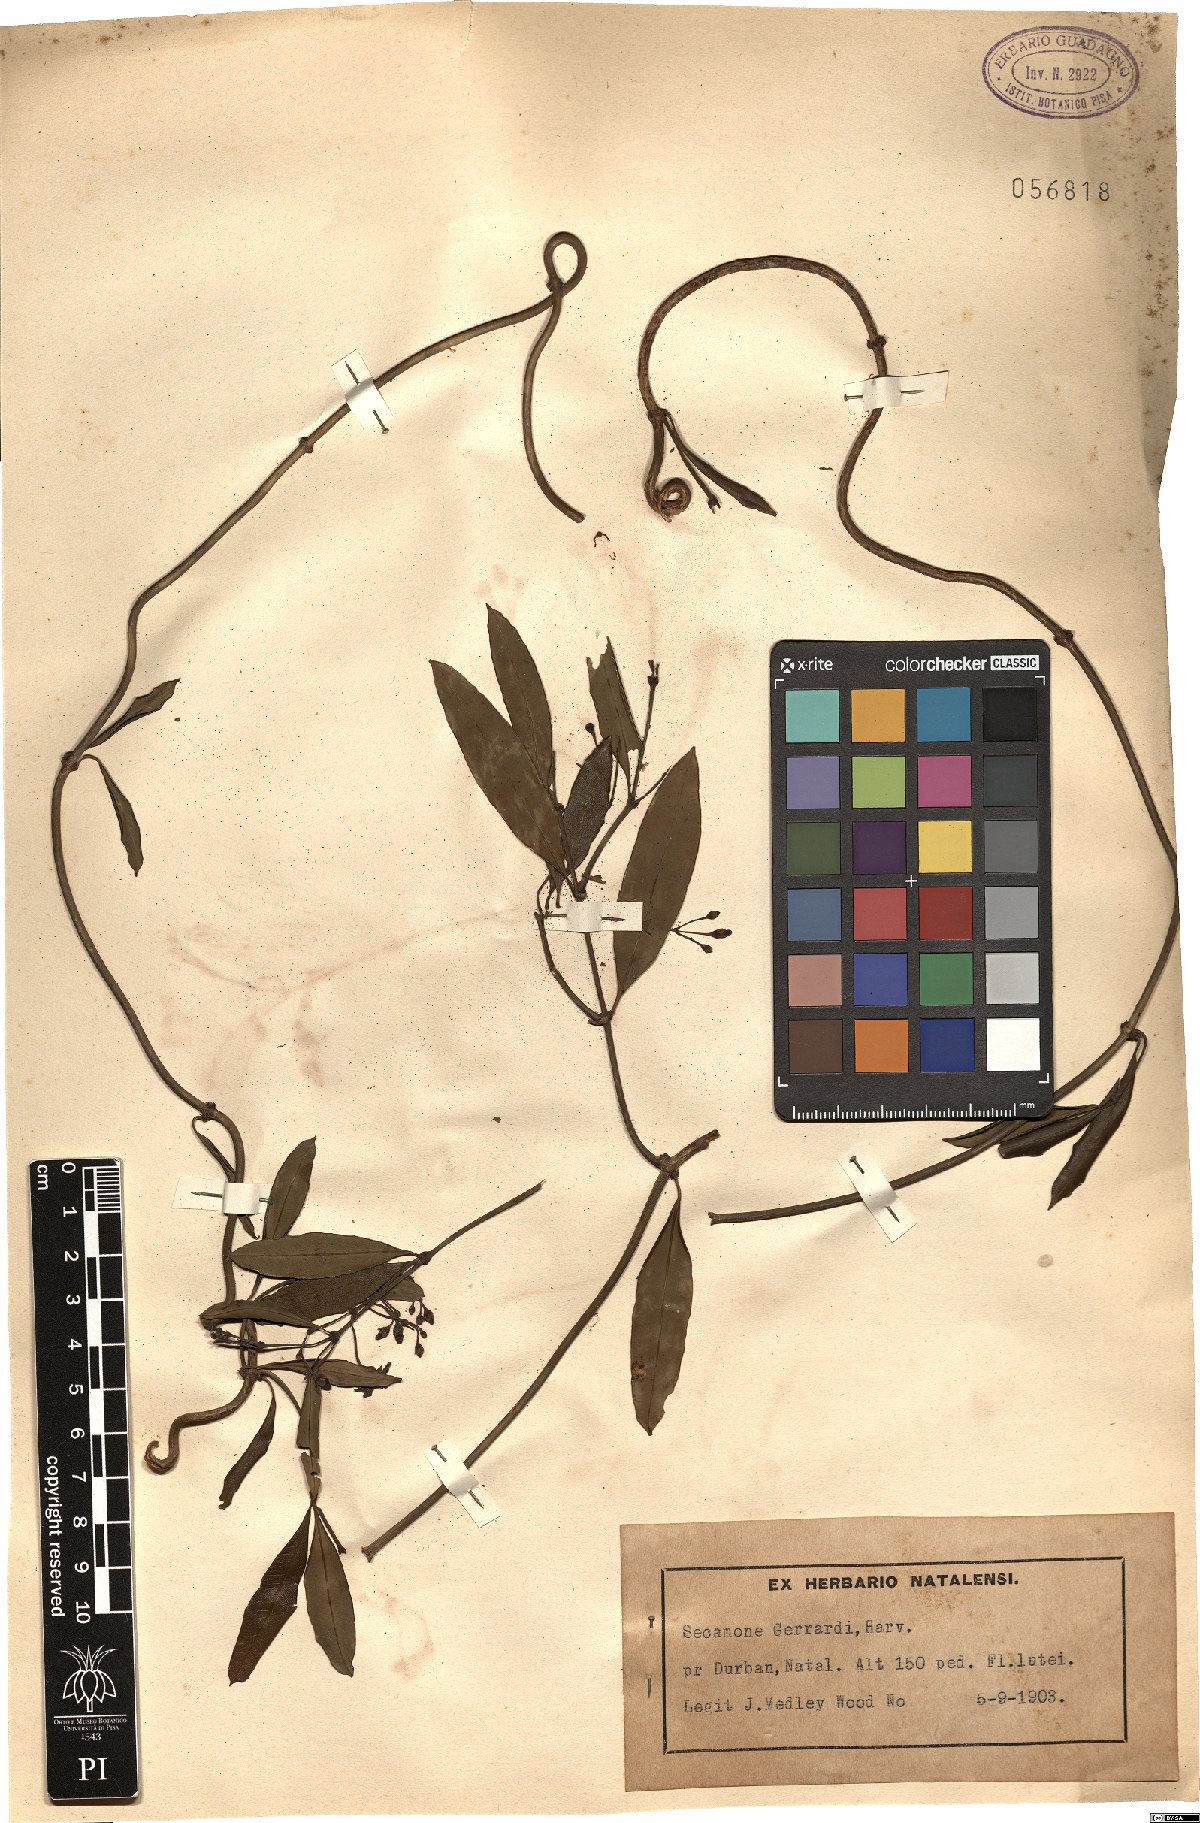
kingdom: Plantae
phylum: Tracheophyta
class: Magnoliopsida
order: Gentianales
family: Apocynaceae
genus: Secamone
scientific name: Secamone gerrardii
